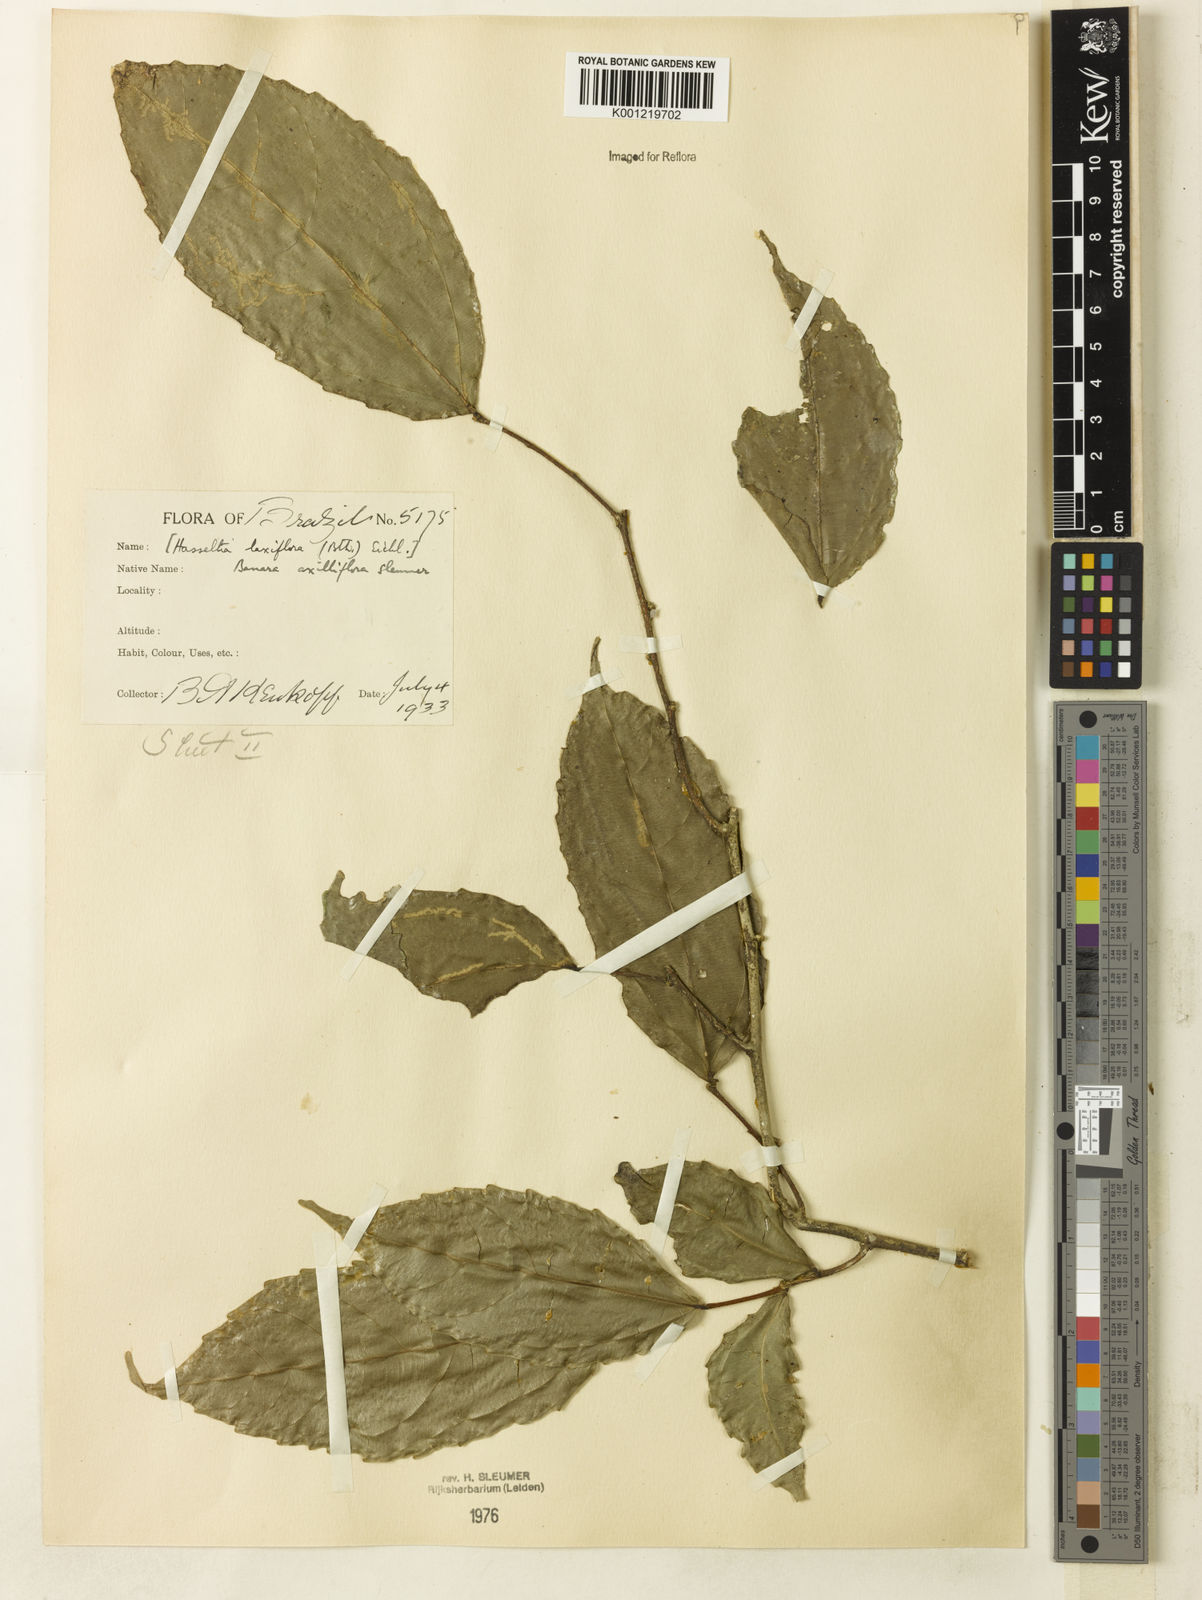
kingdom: Plantae
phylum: Tracheophyta
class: Magnoliopsida
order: Malpighiales
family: Salicaceae
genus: Banara
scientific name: Banara axilliflora
